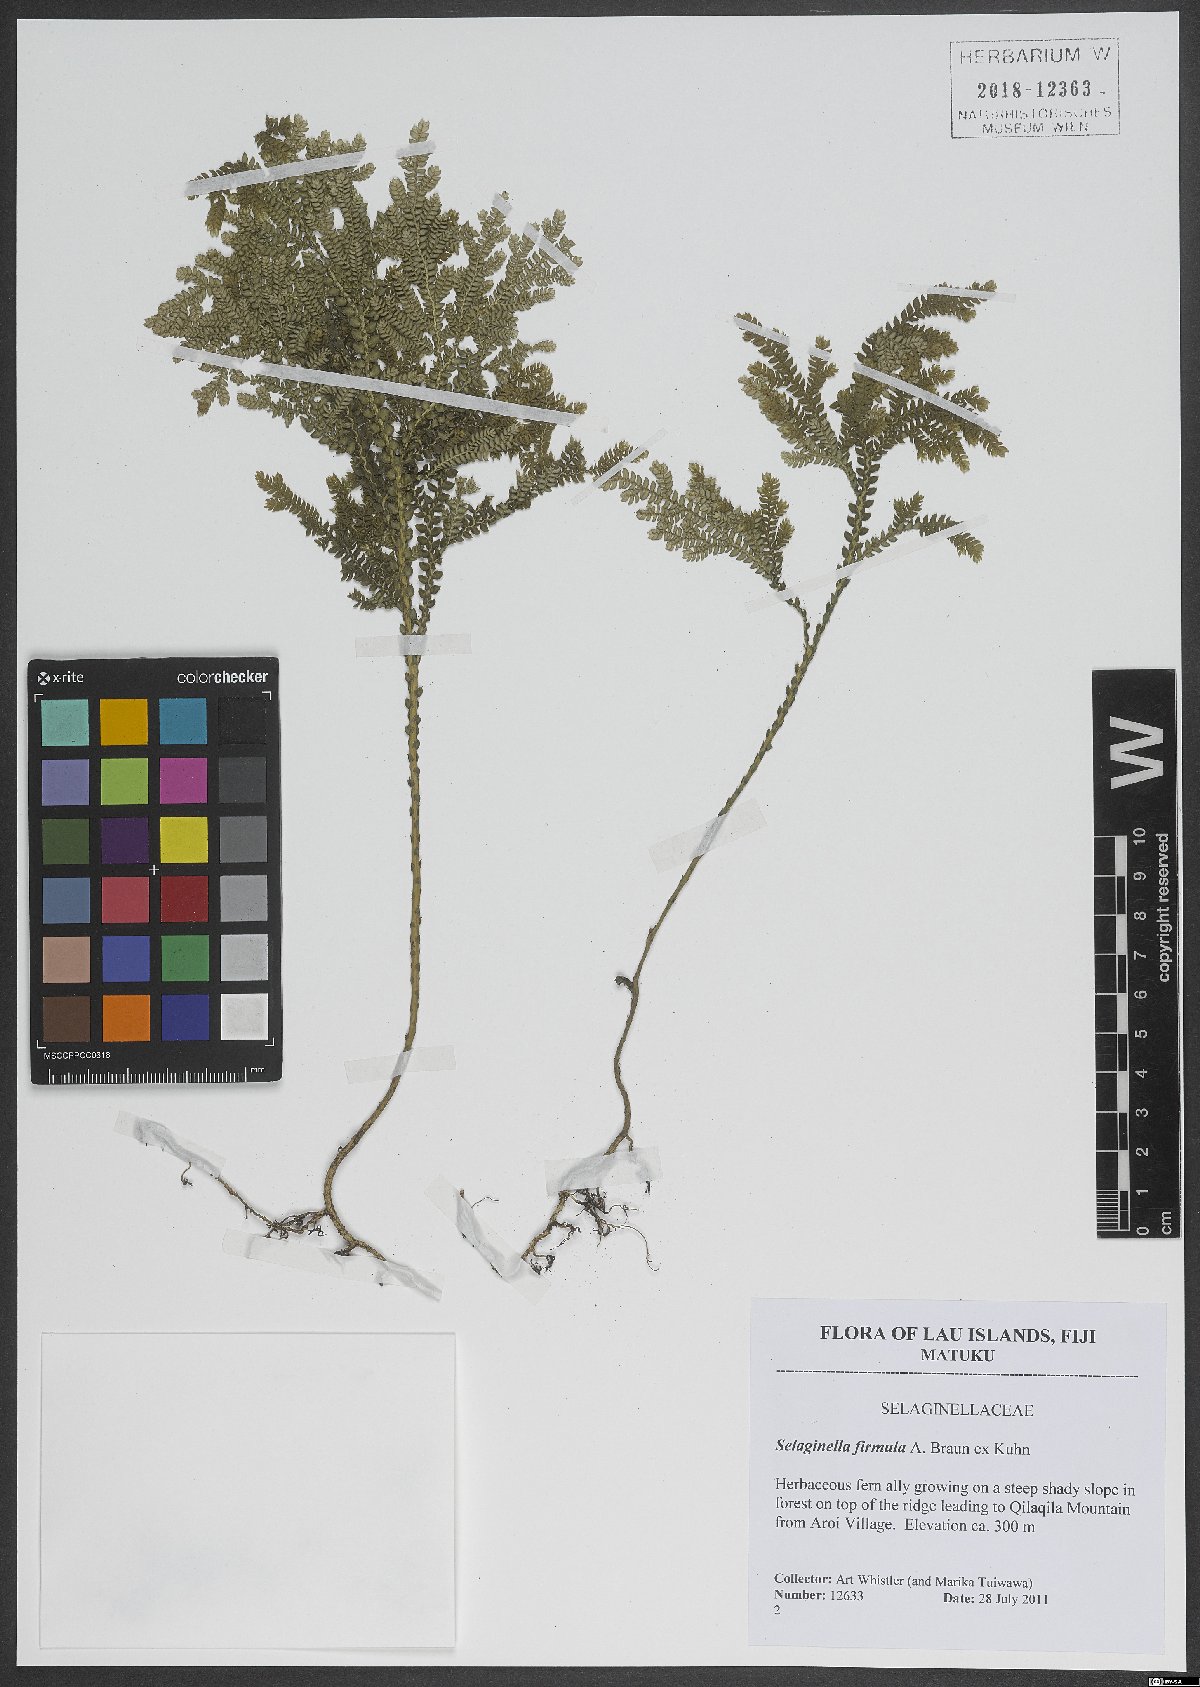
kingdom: Plantae
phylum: Tracheophyta
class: Lycopodiopsida
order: Selaginellales
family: Selaginellaceae
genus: Selaginella
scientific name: Selaginella firmula
